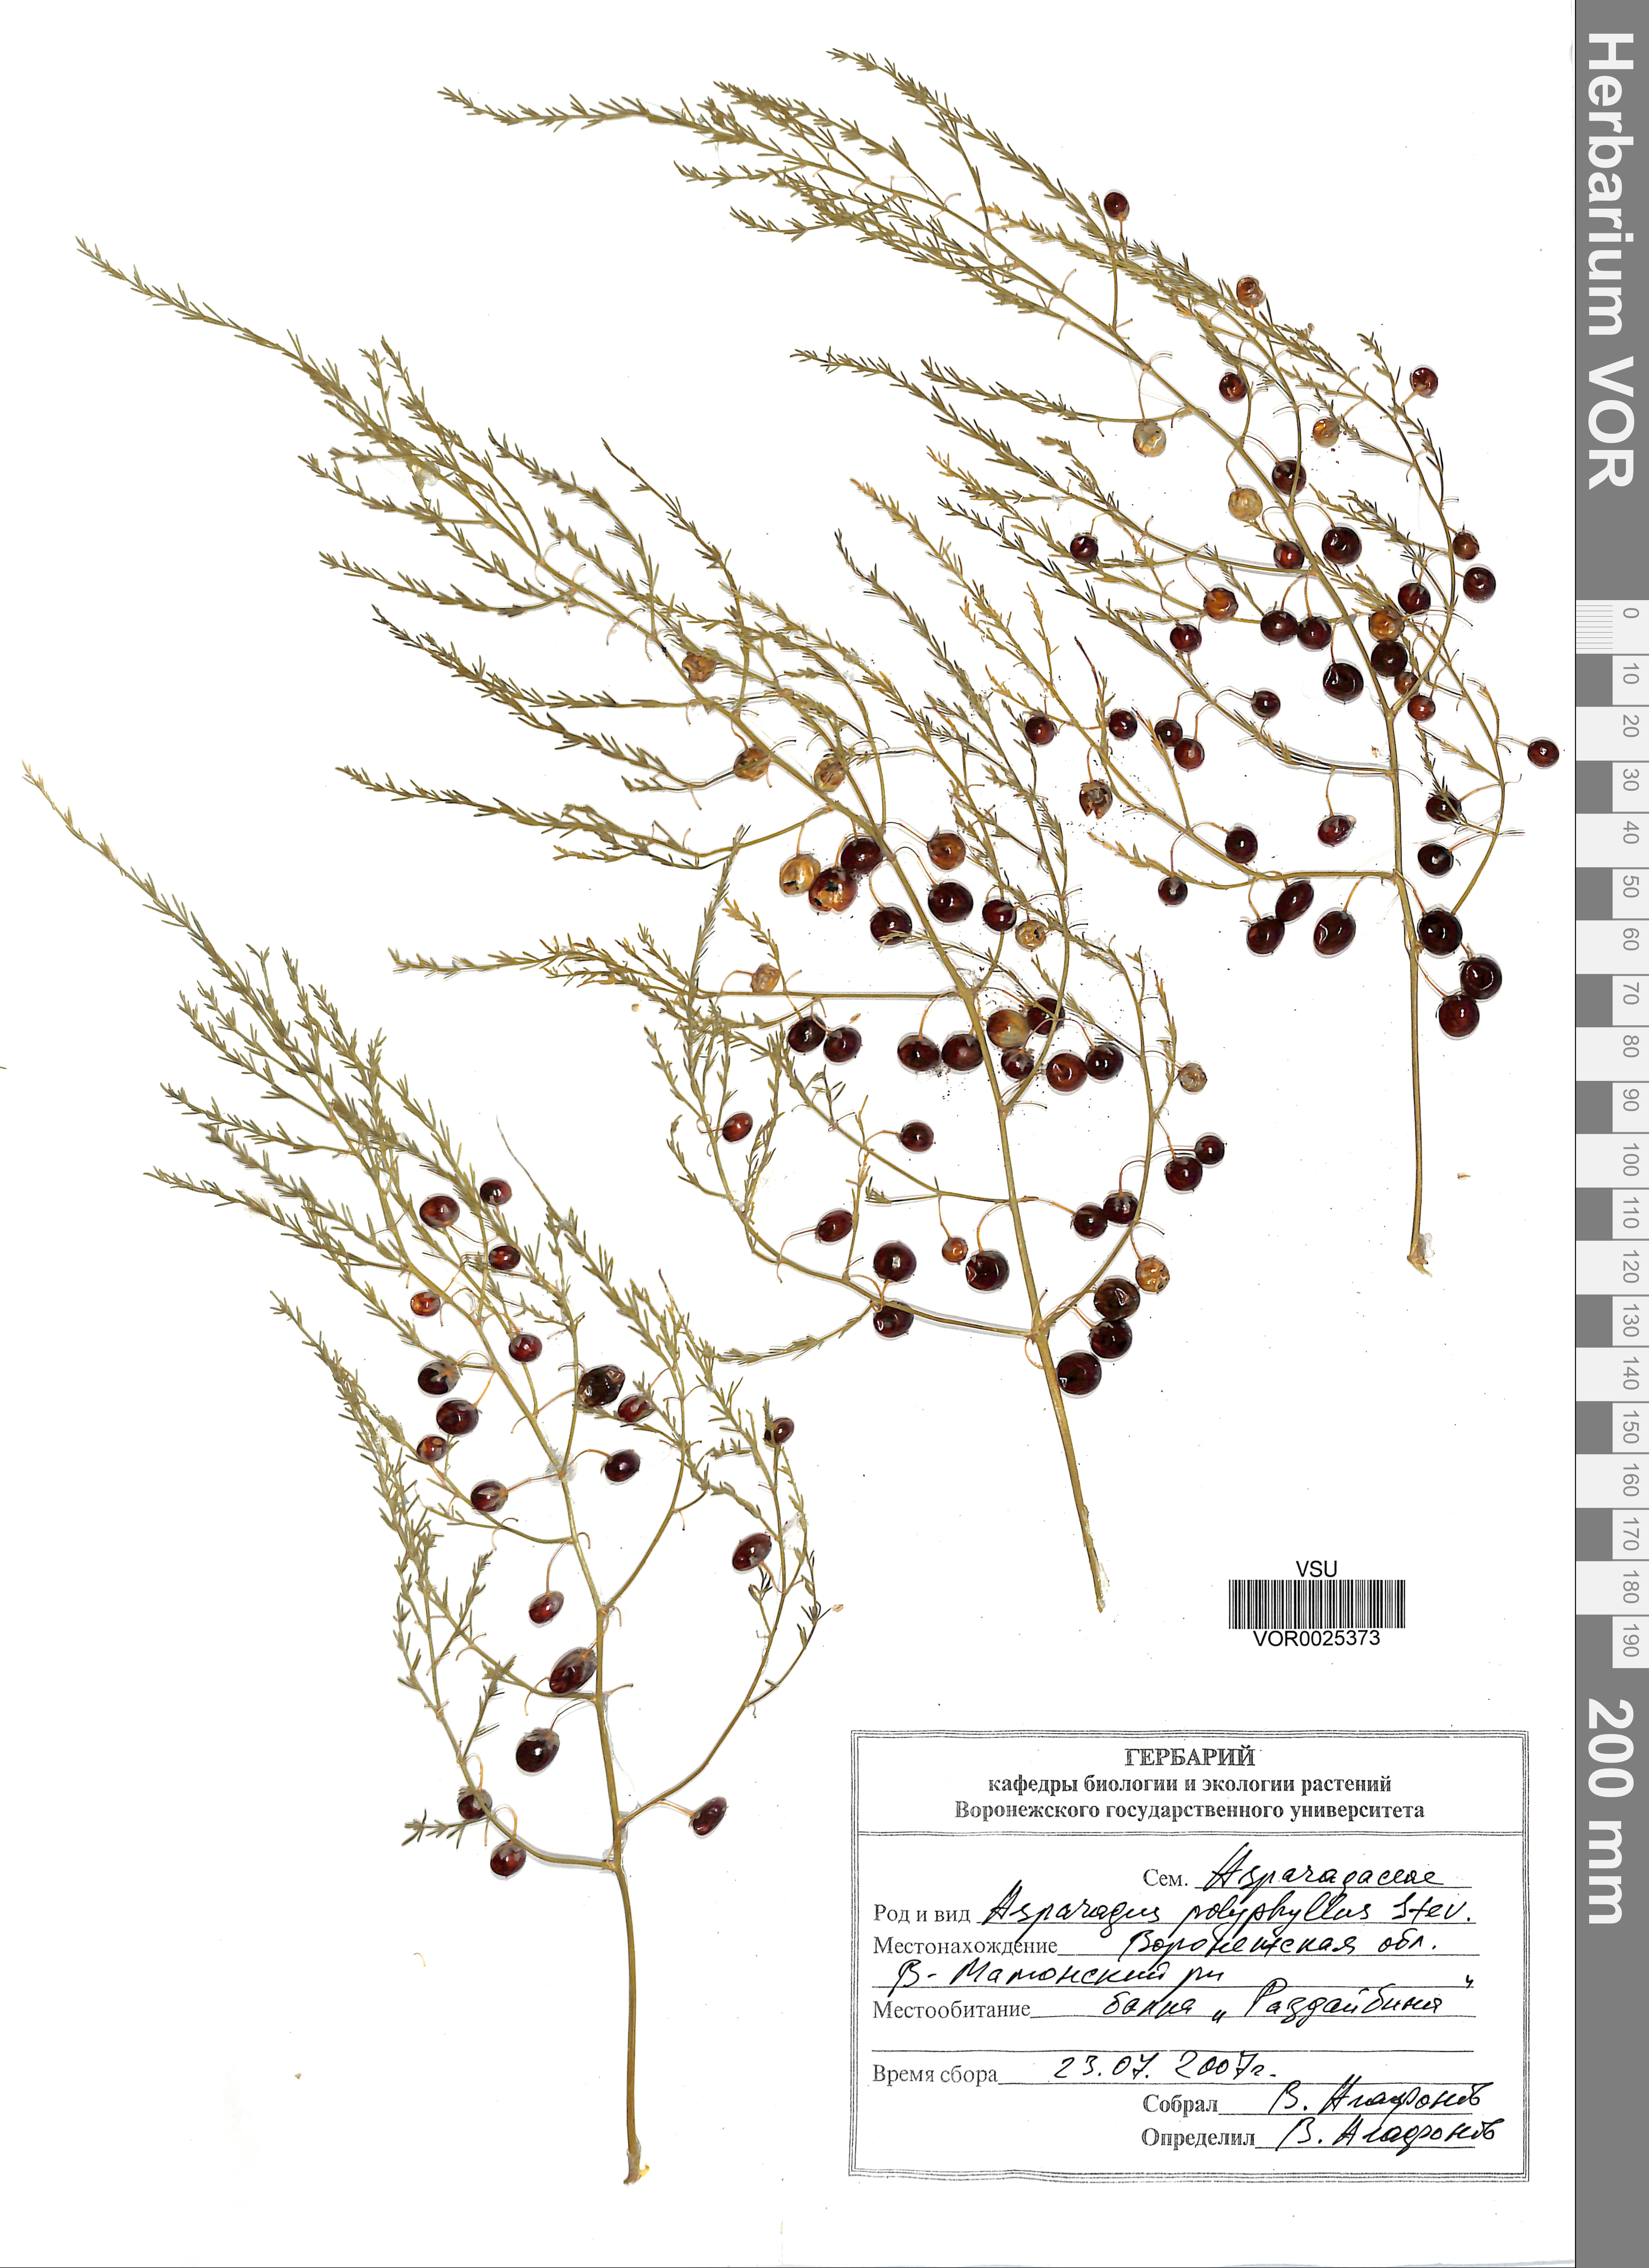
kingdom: Plantae
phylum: Tracheophyta
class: Liliopsida
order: Asparagales
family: Asparagaceae
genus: Asparagus
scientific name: Asparagus officinalis
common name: Garden asparagus
